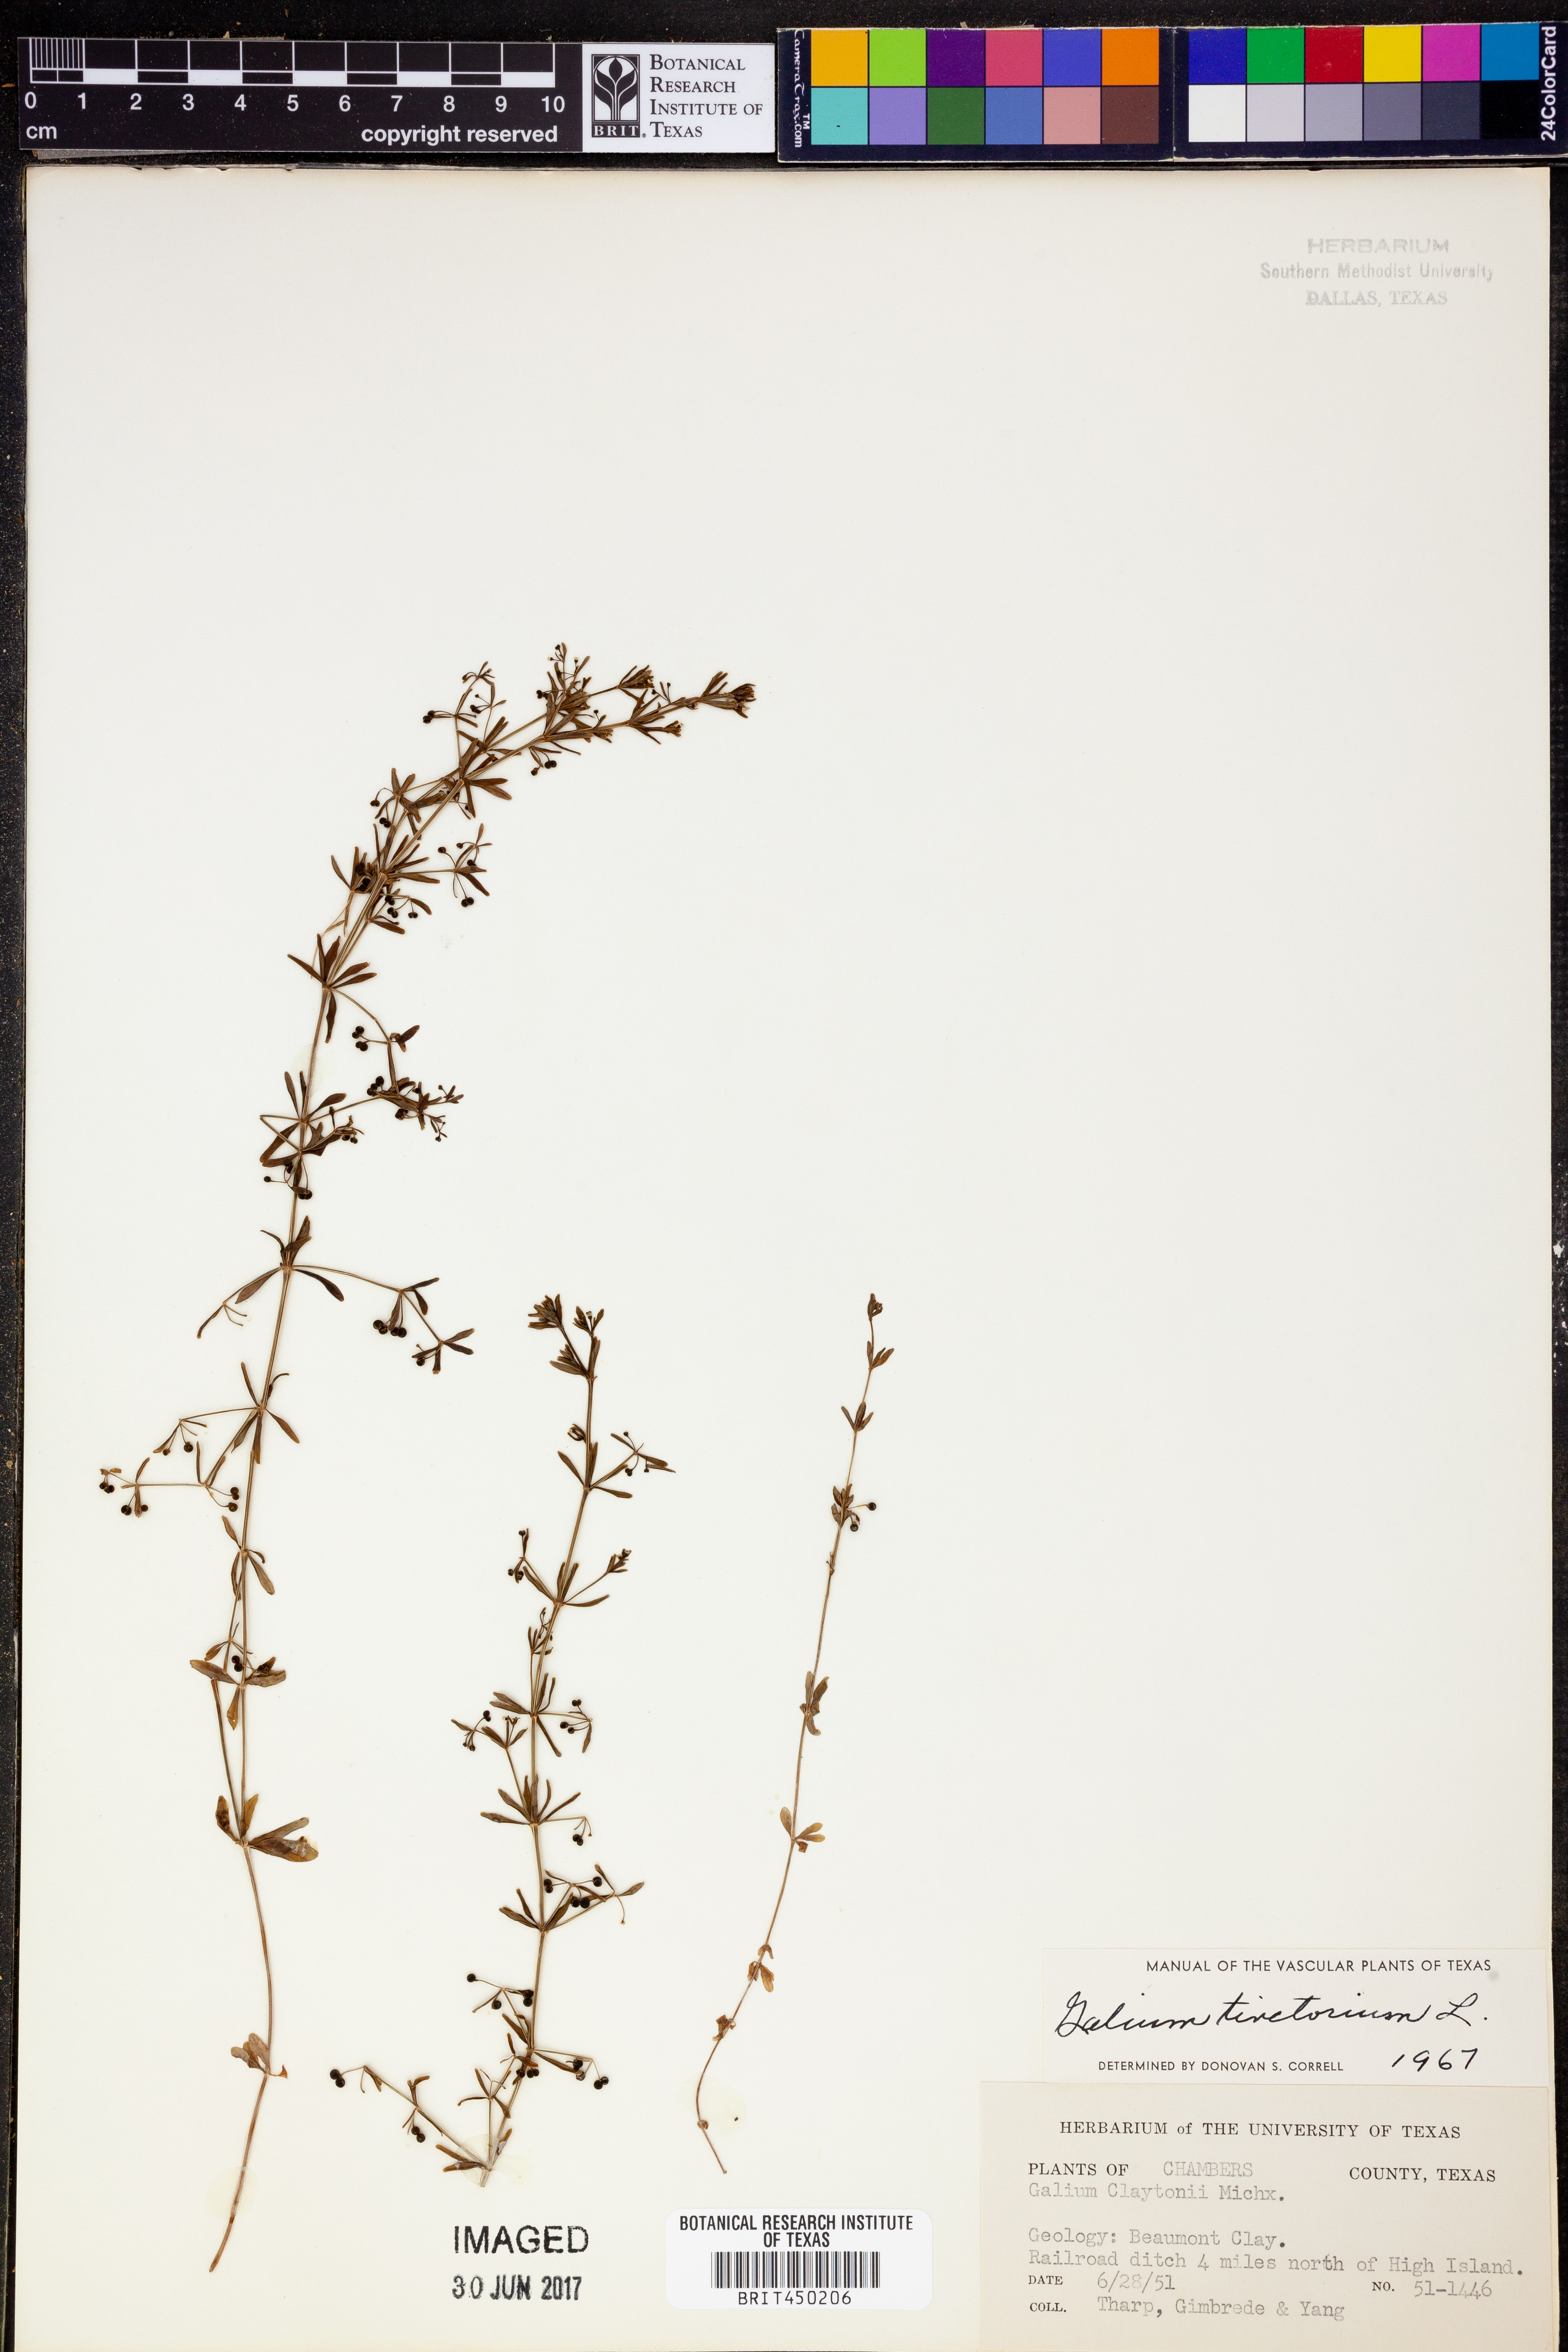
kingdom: Plantae
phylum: Tracheophyta
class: Magnoliopsida
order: Gentianales
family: Rubiaceae
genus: Asperula
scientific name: Asperula tinctoria
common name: Dyer's woodruff
